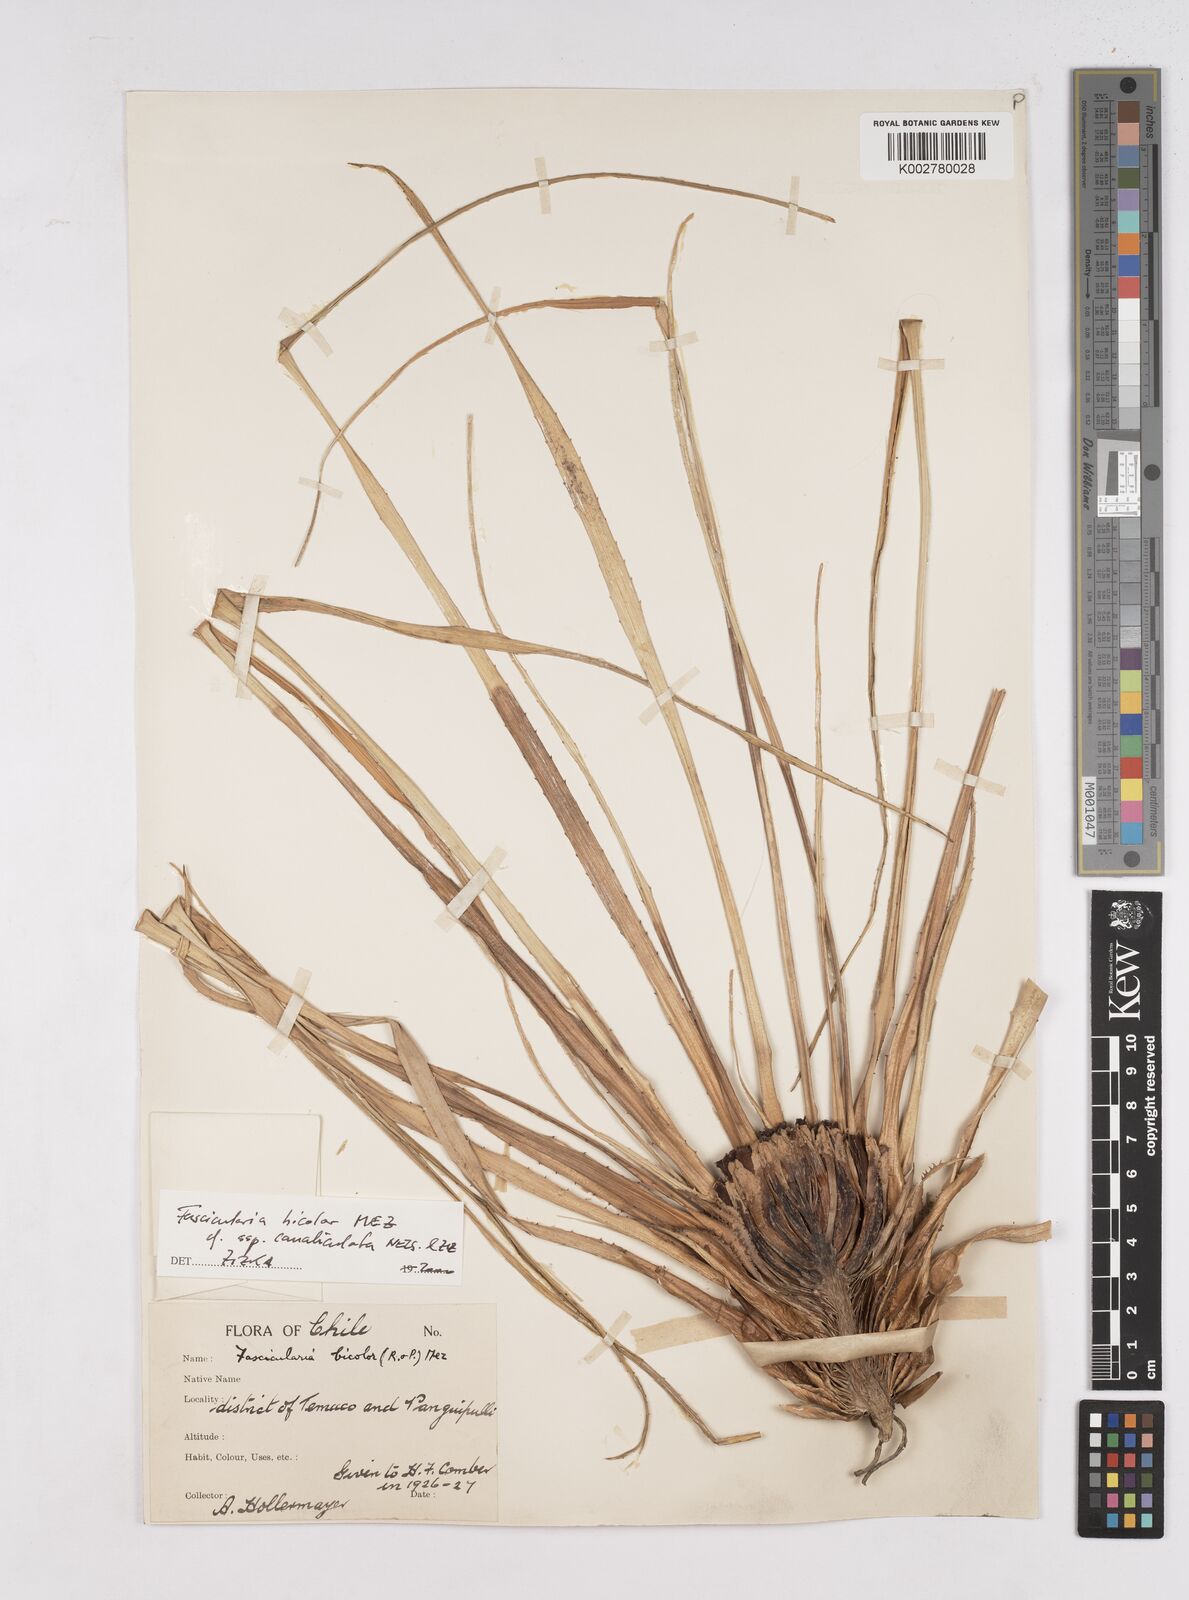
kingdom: Plantae
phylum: Tracheophyta
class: Liliopsida
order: Poales
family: Bromeliaceae
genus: Fascicularia
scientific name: Fascicularia bicolor
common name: Rhodostachys
